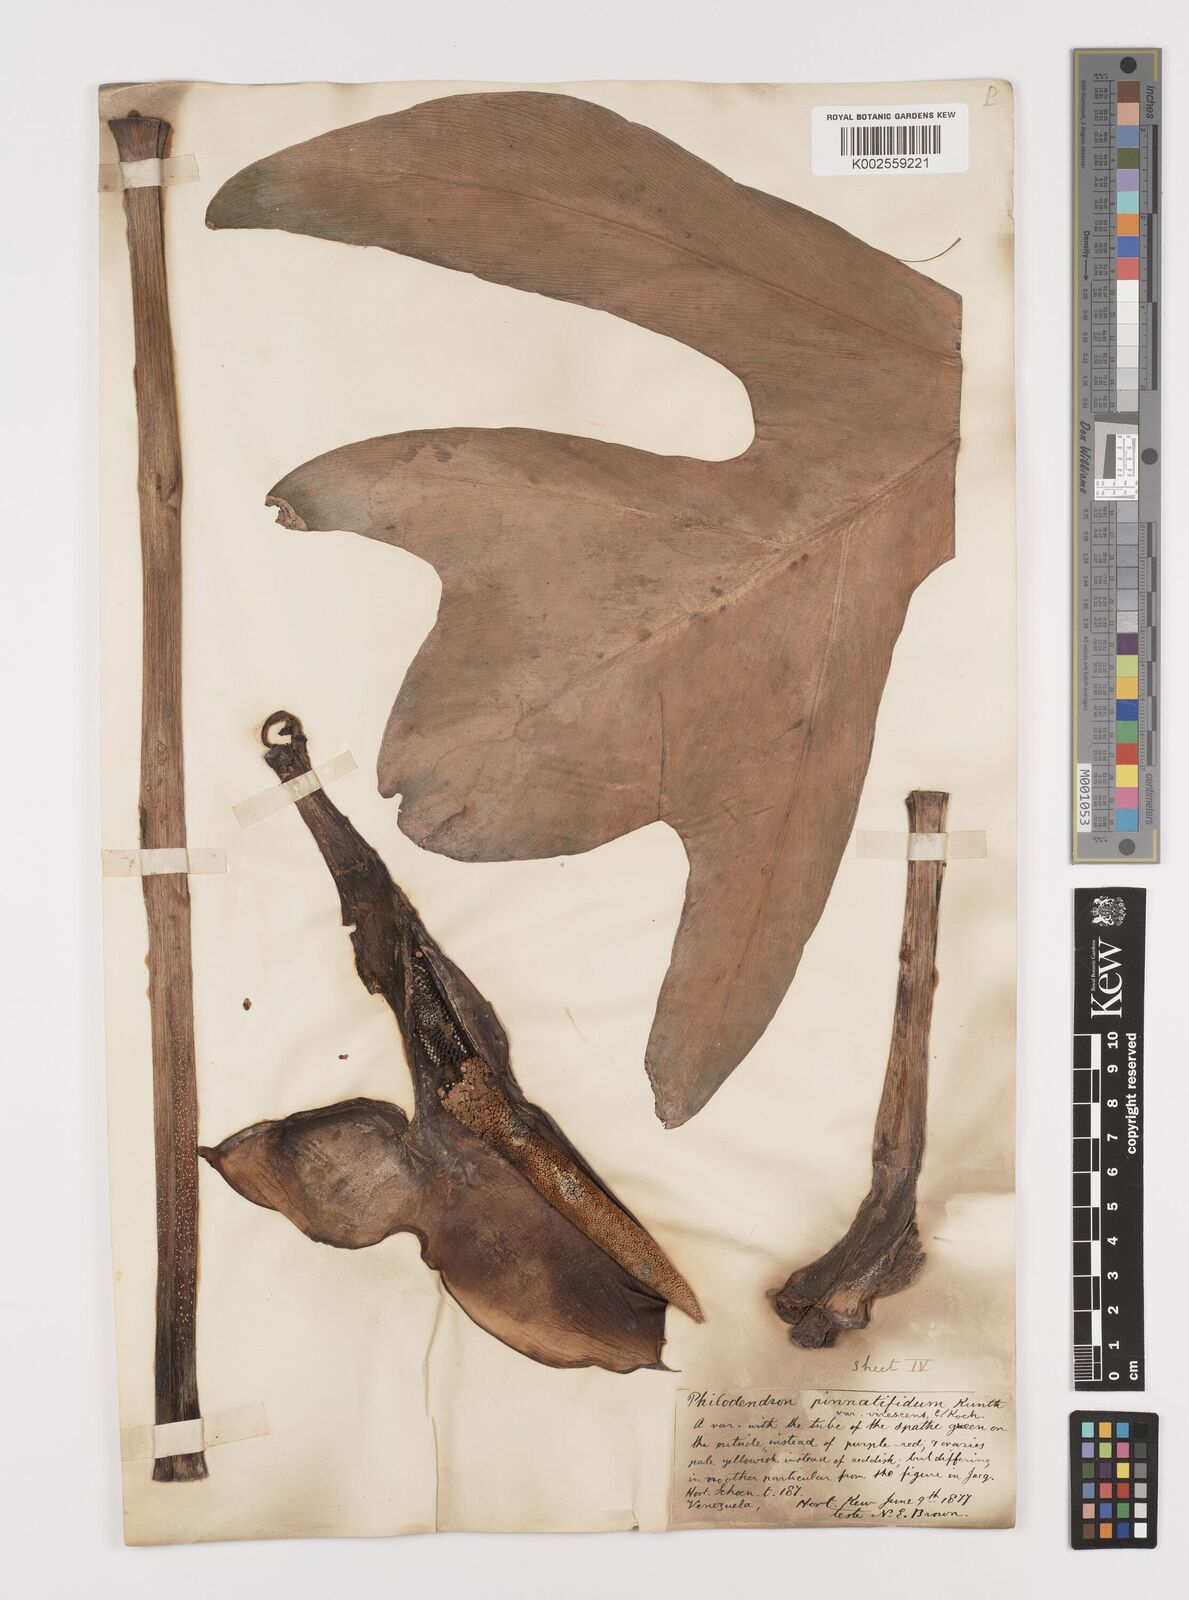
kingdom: Plantae
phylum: Tracheophyta
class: Liliopsida
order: Alismatales
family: Araceae
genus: Philodendron
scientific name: Philodendron pinnatifidum
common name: Comb-leaf philodendron
